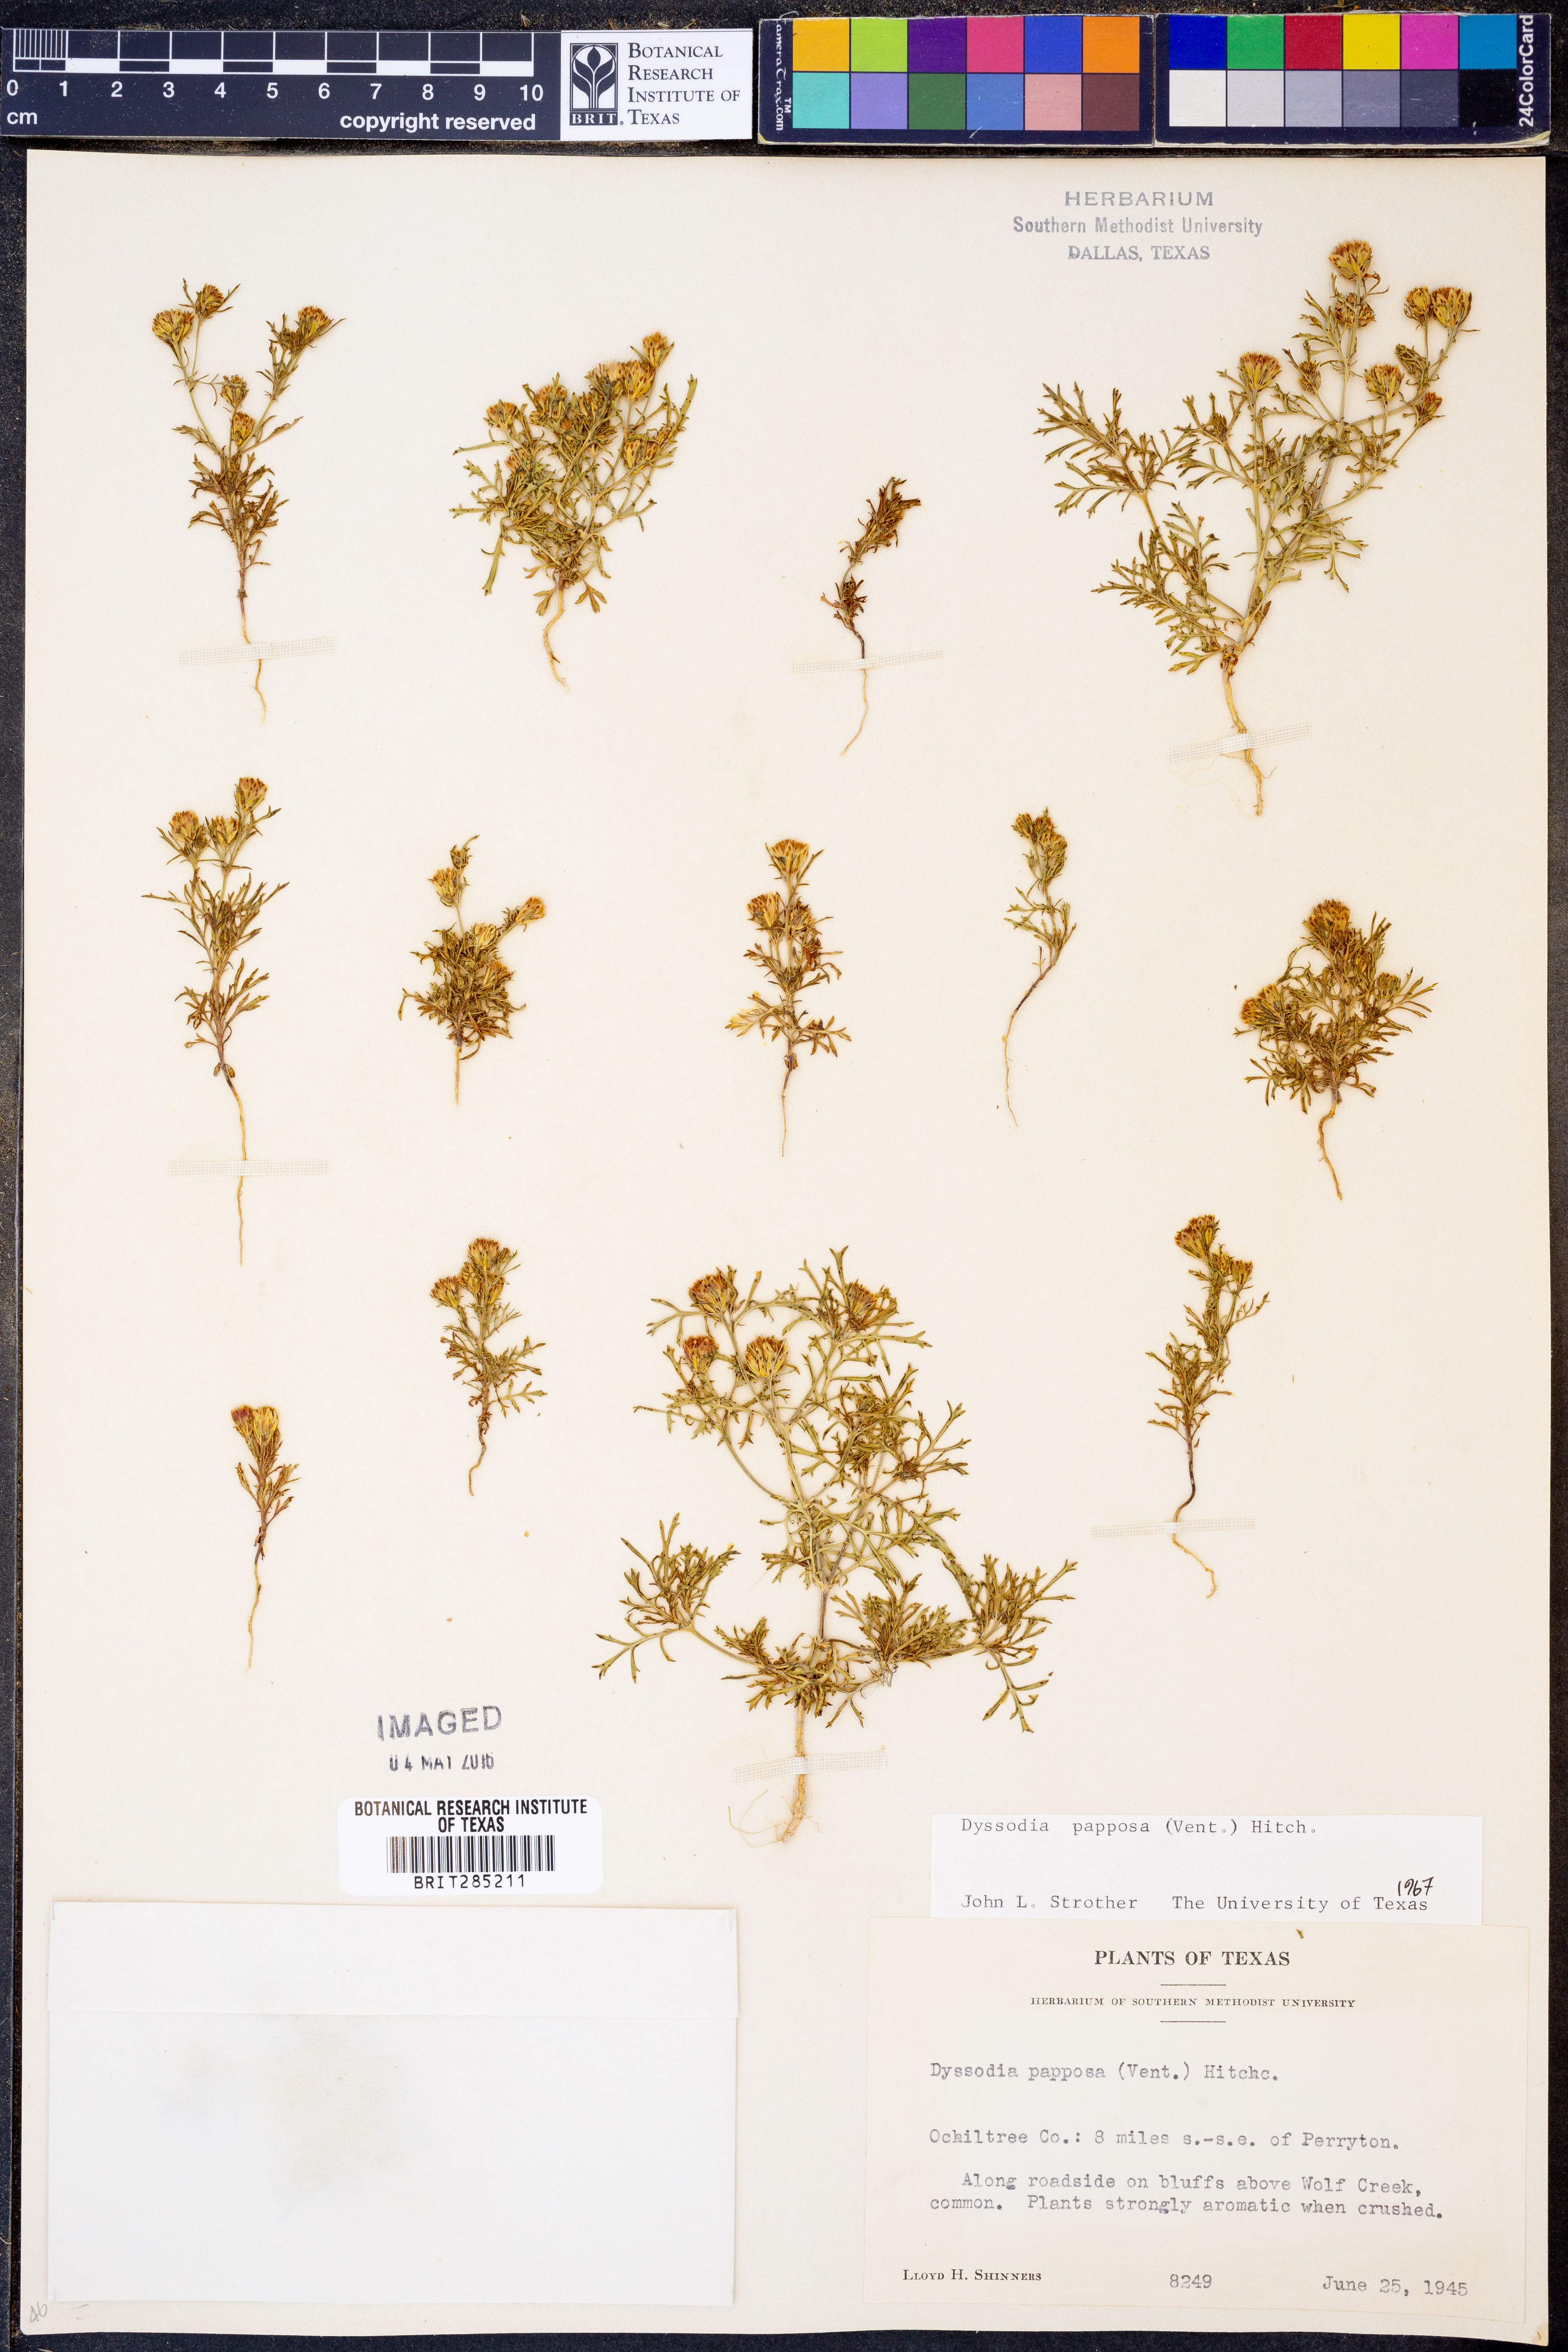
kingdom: Plantae
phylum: Tracheophyta
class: Magnoliopsida
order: Asterales
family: Asteraceae
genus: Dyssodia
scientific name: Dyssodia papposa
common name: Dogweed
